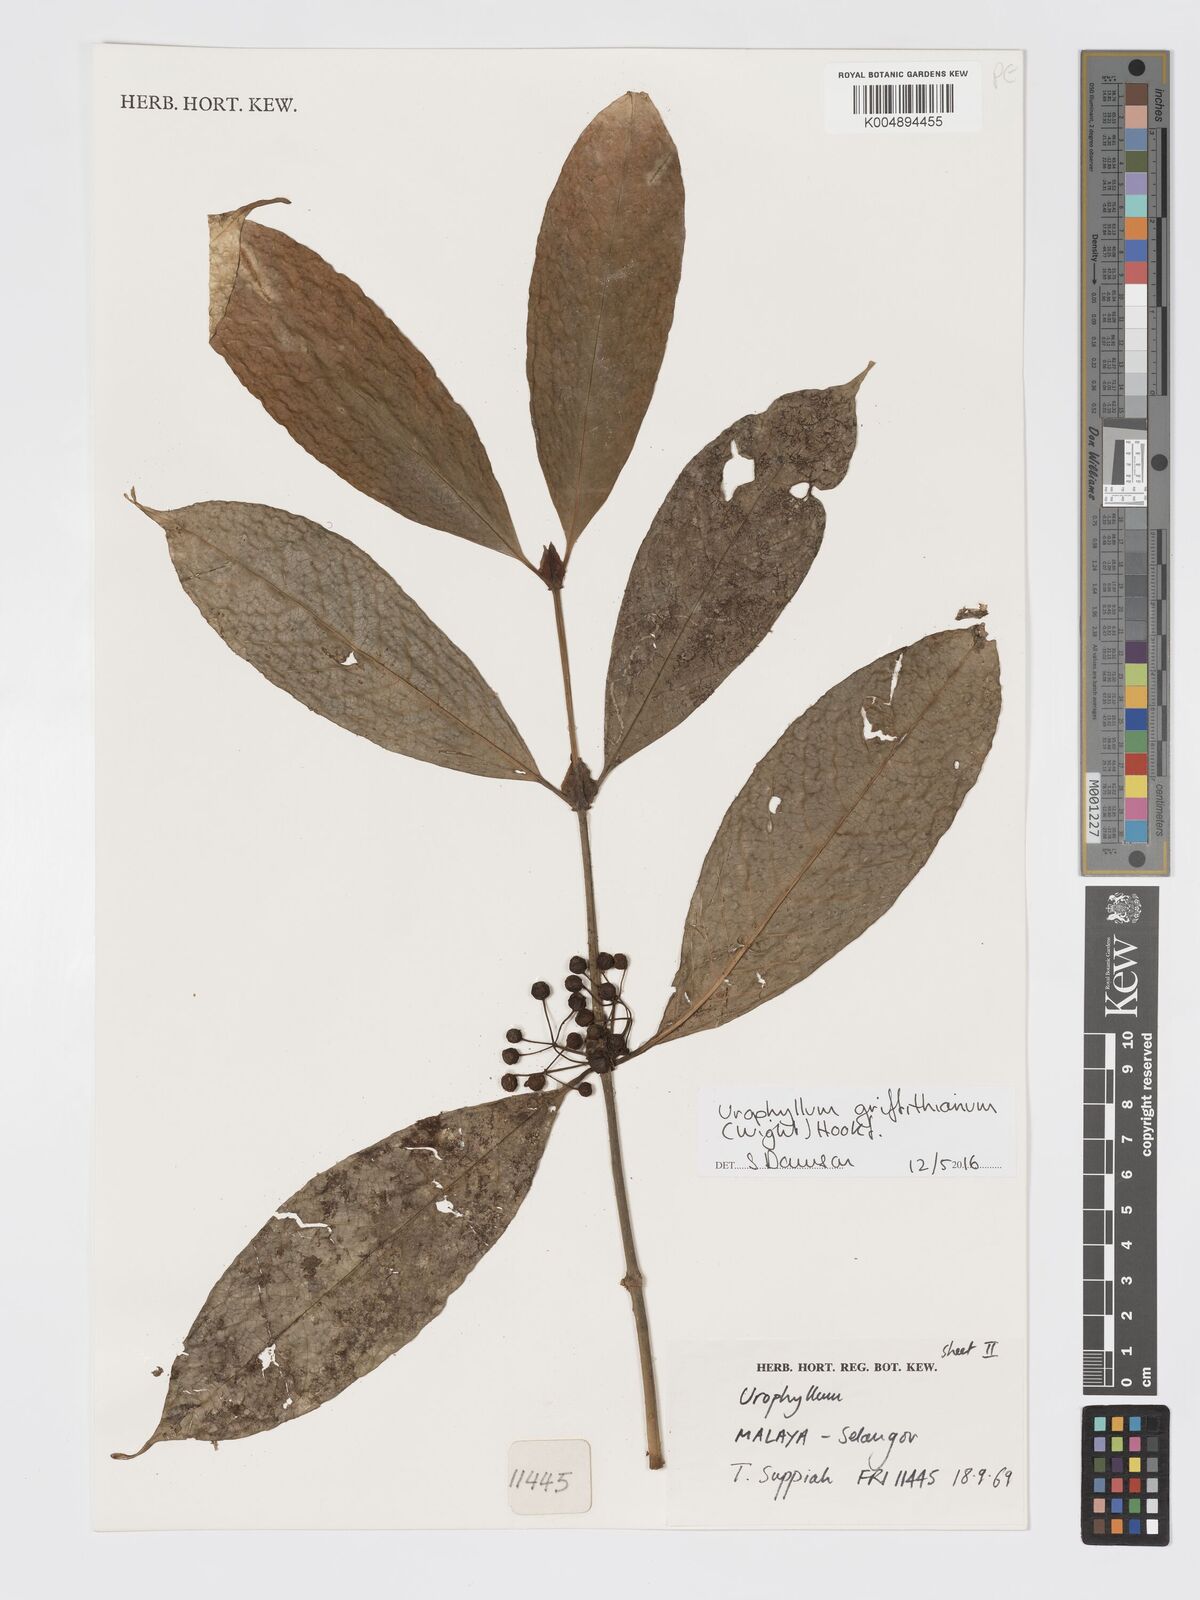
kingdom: Plantae
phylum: Tracheophyta
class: Magnoliopsida
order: Gentianales
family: Rubiaceae
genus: Urophyllum
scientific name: Urophyllum griffithianum
